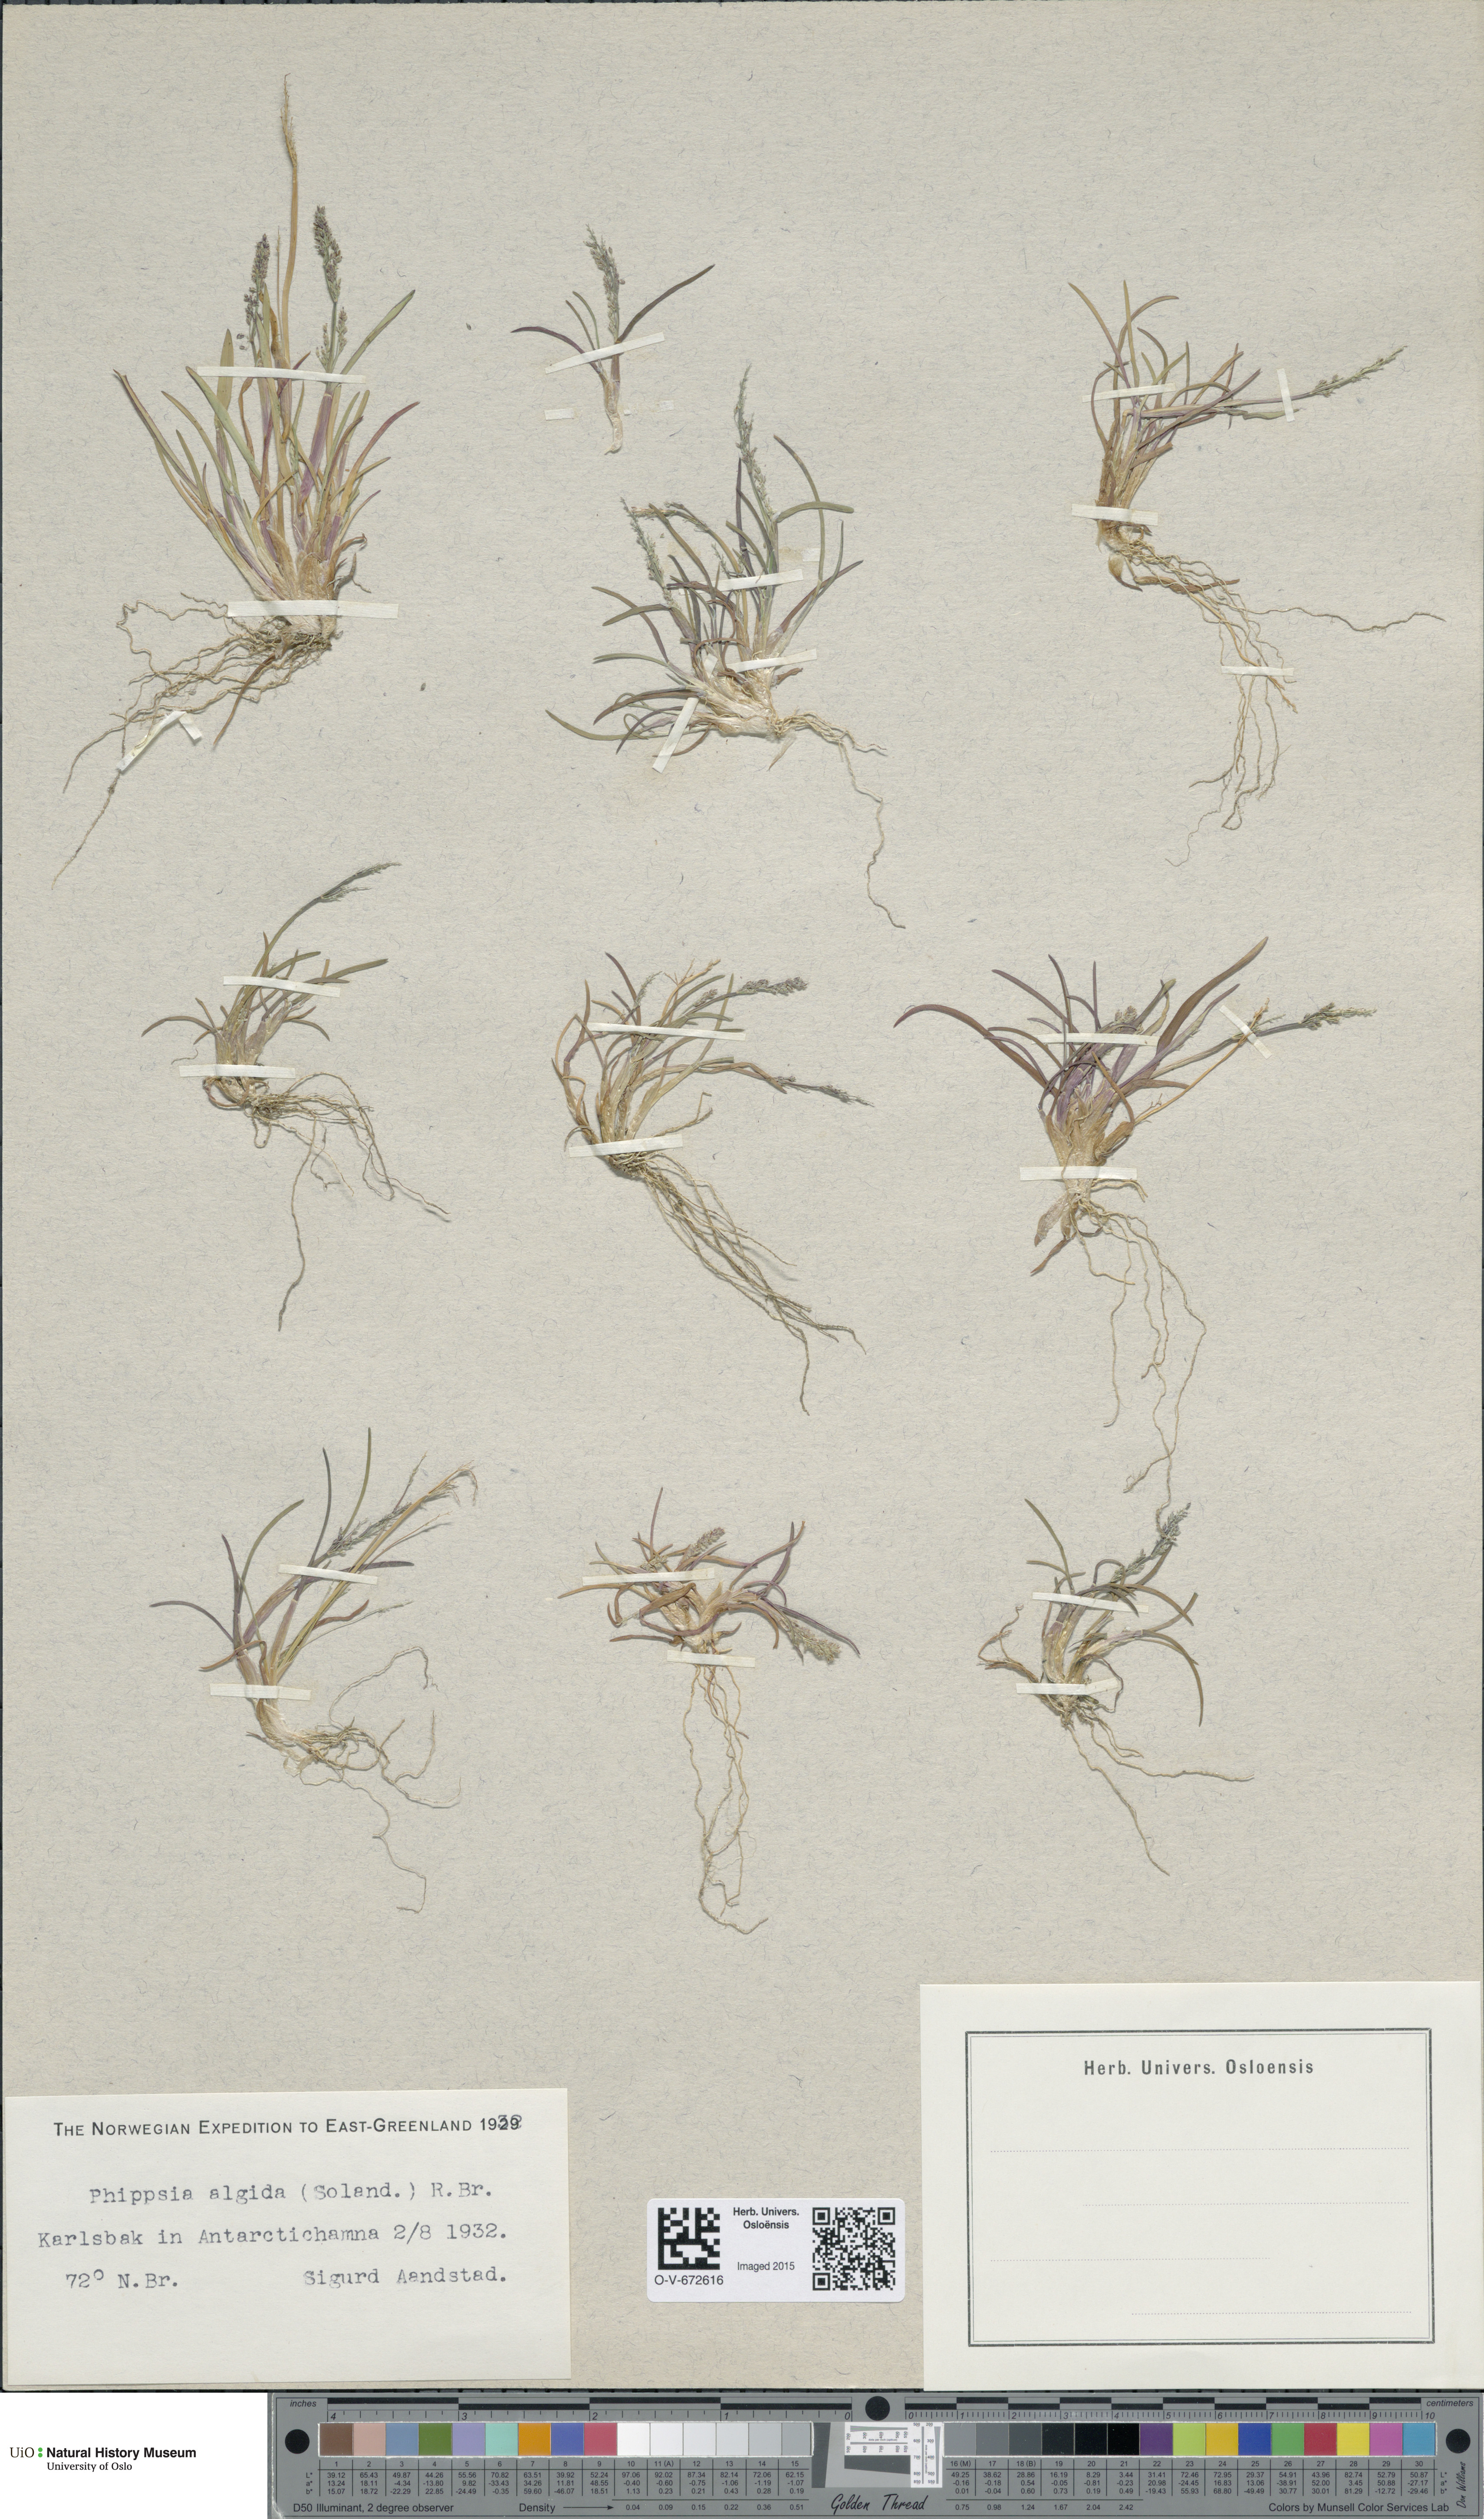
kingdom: Plantae
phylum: Tracheophyta
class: Liliopsida
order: Poales
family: Poaceae
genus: Phippsia
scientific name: Phippsia algida
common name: Ice grass
